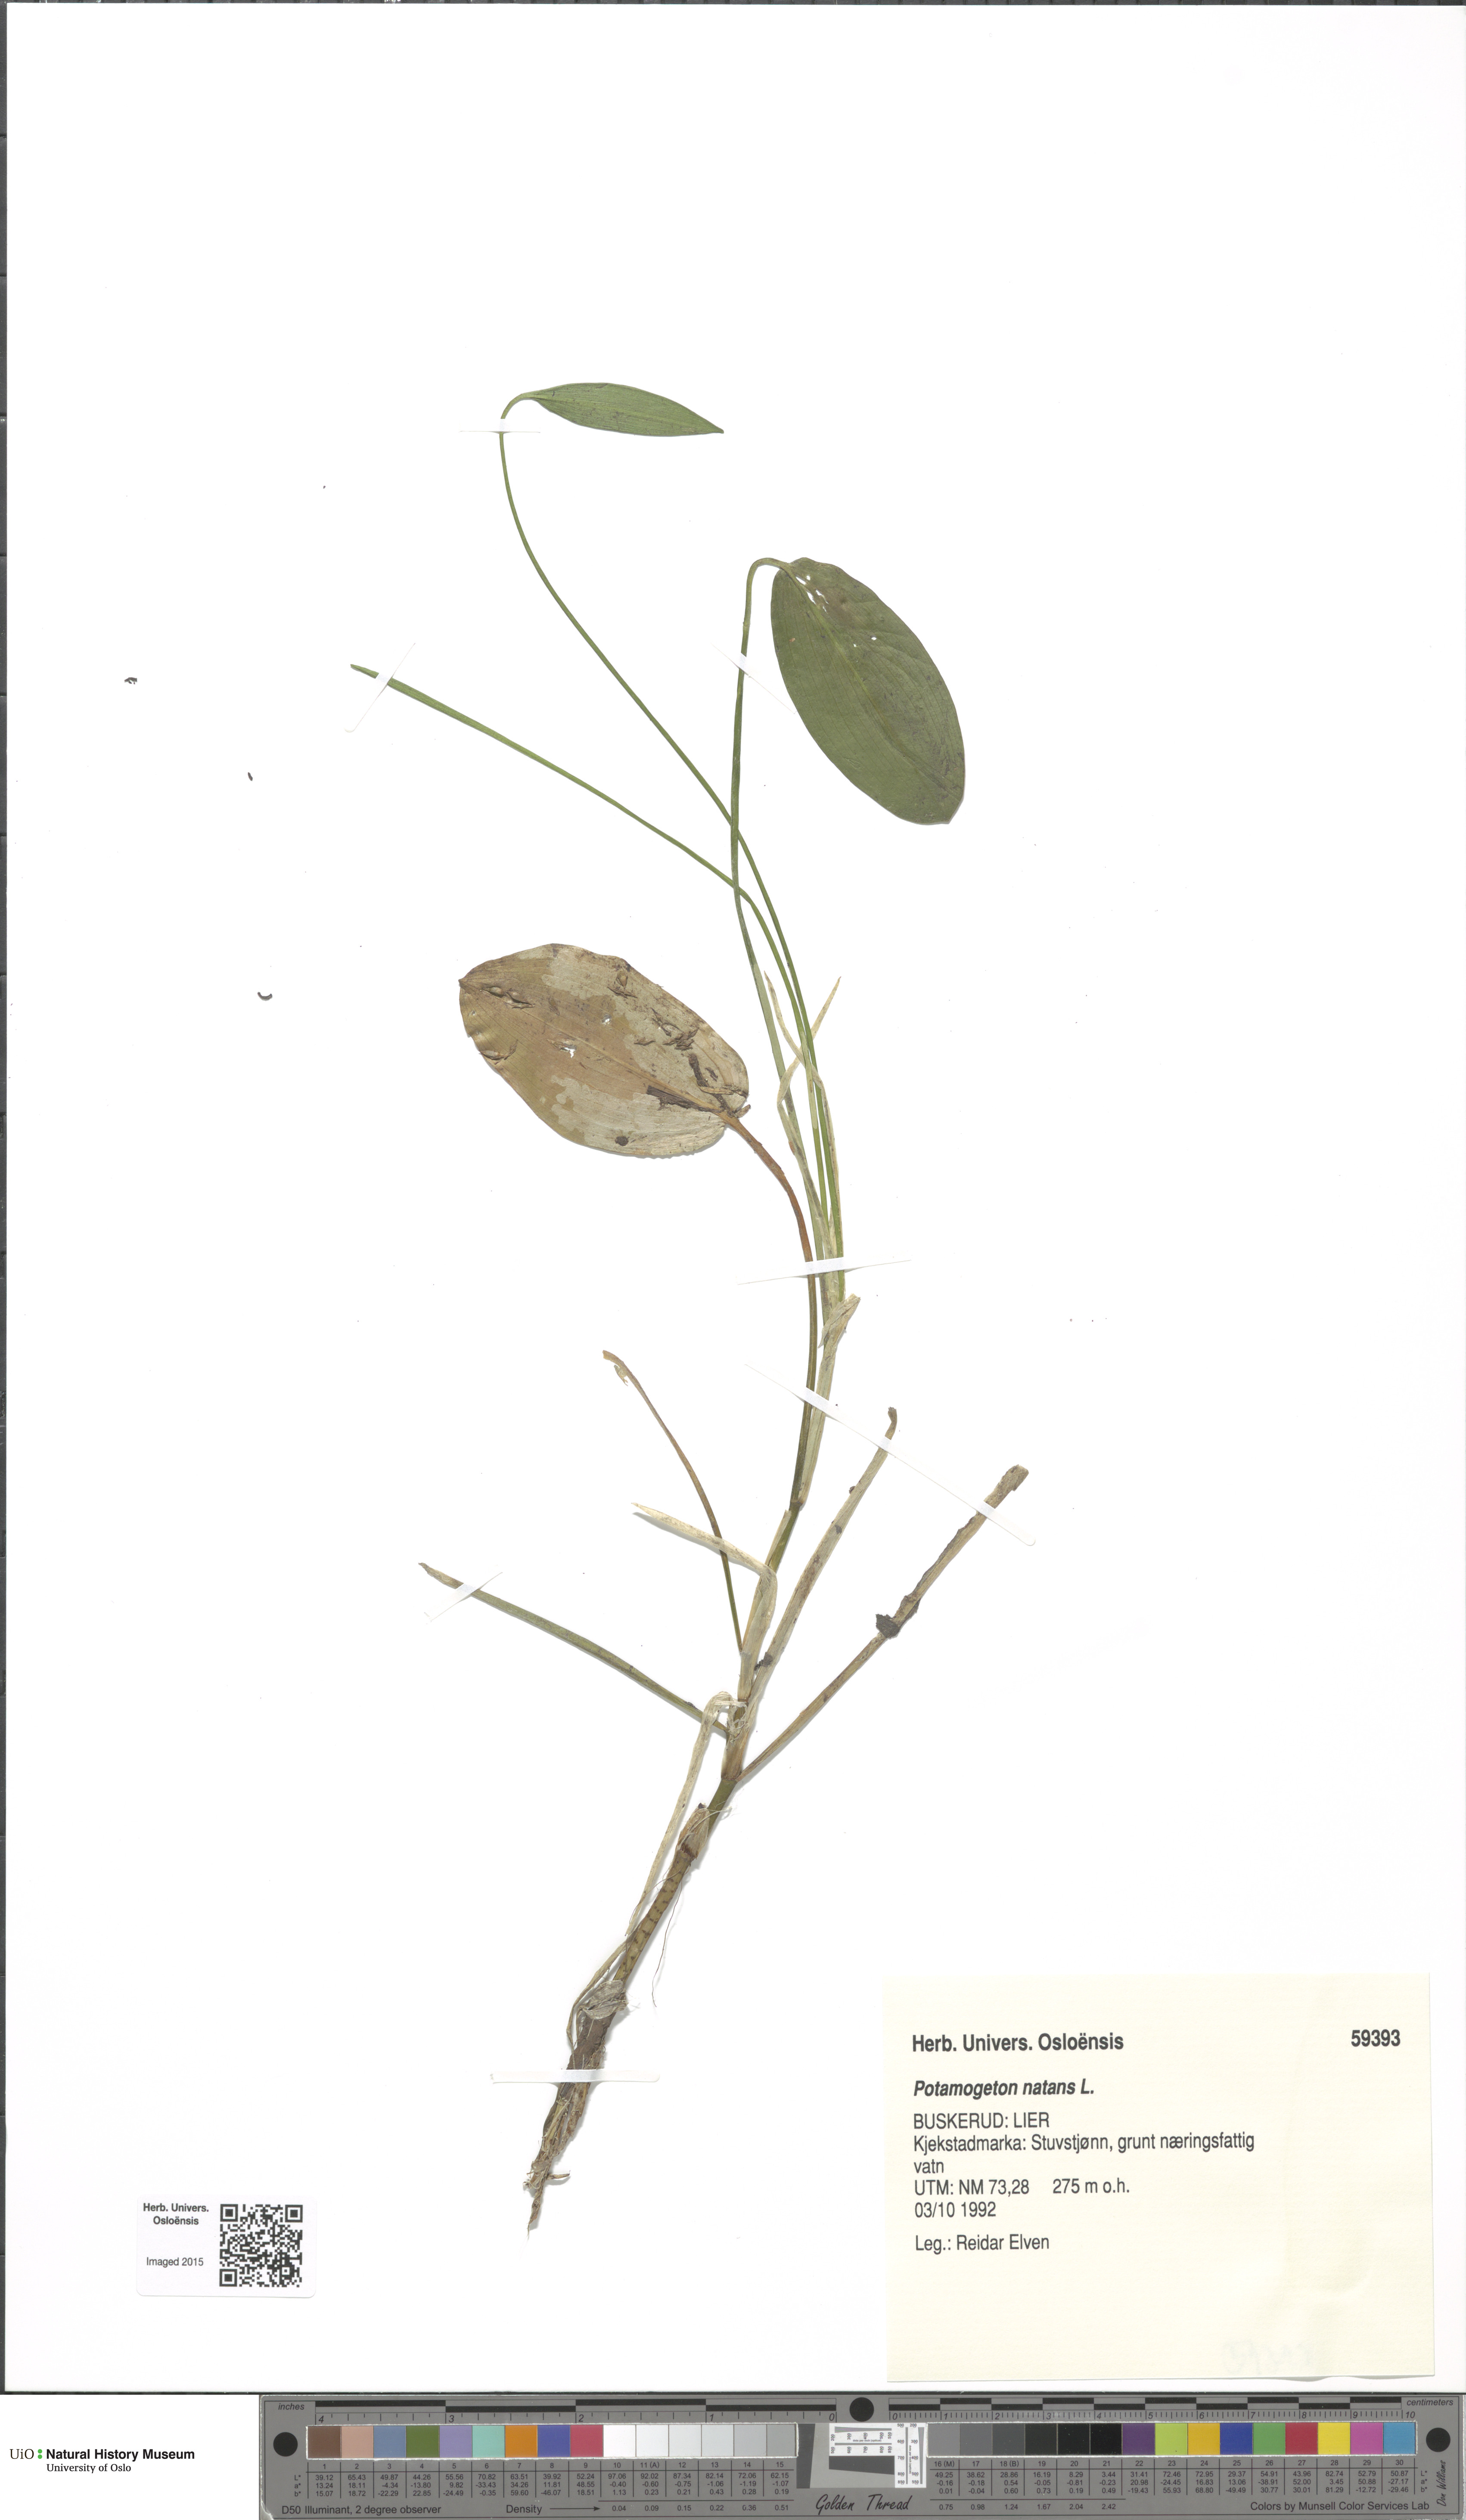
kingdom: Plantae
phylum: Tracheophyta
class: Liliopsida
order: Alismatales
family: Potamogetonaceae
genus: Potamogeton
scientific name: Potamogeton natans
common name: Broad-leaved pondweed
